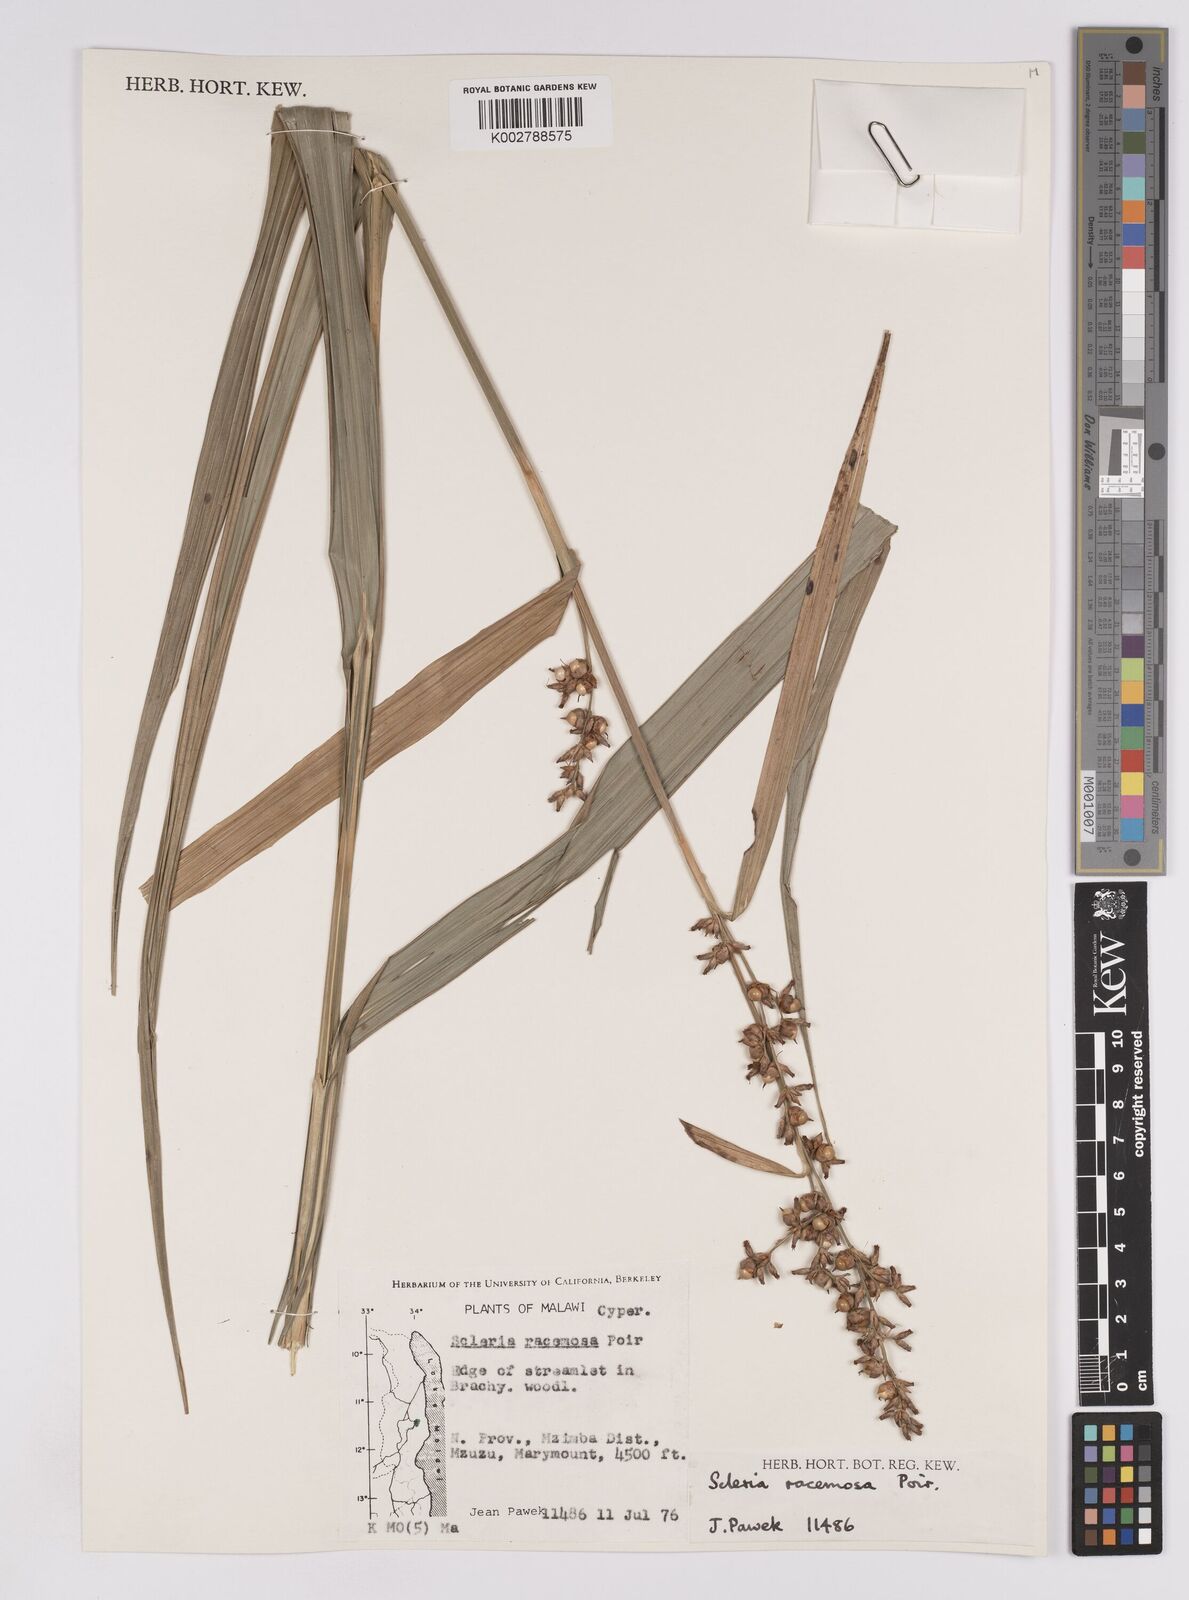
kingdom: Plantae
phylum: Tracheophyta
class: Liliopsida
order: Poales
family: Cyperaceae
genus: Scleria
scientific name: Scleria racemosa
